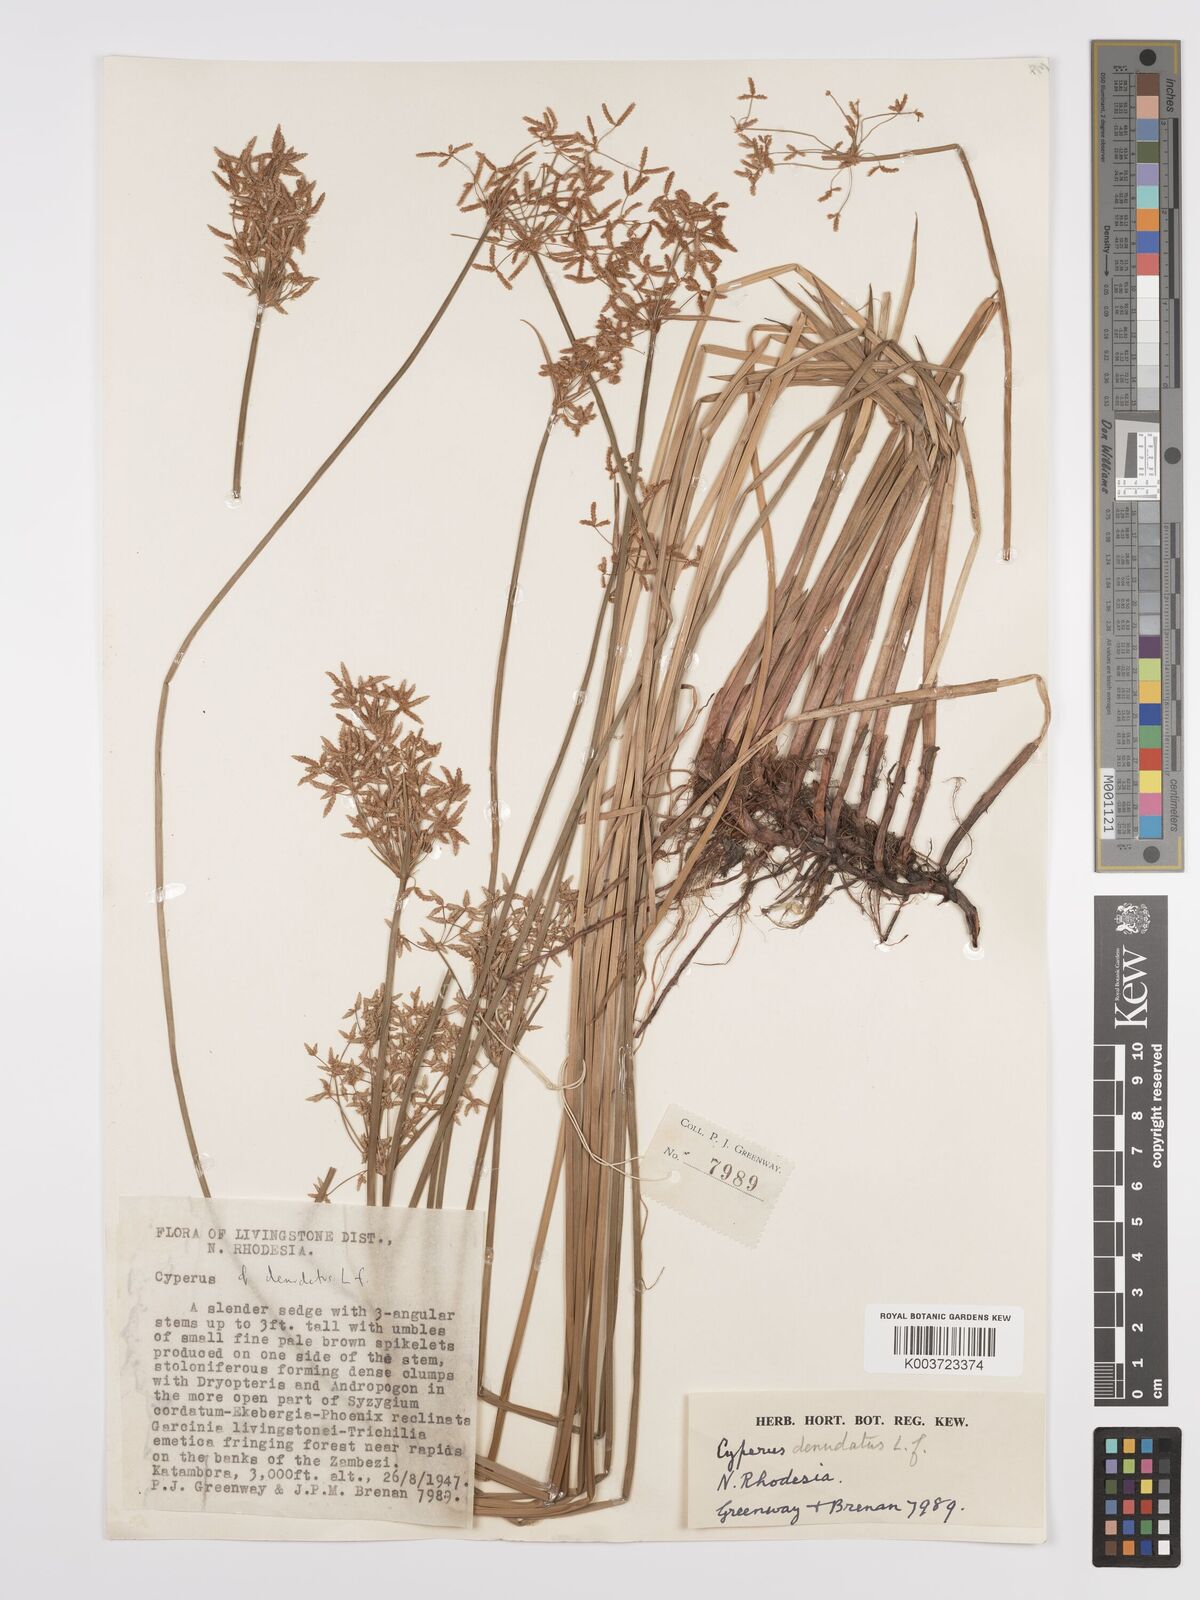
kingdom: Plantae
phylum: Tracheophyta
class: Liliopsida
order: Poales
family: Cyperaceae
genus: Cyperus
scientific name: Cyperus denudatus
